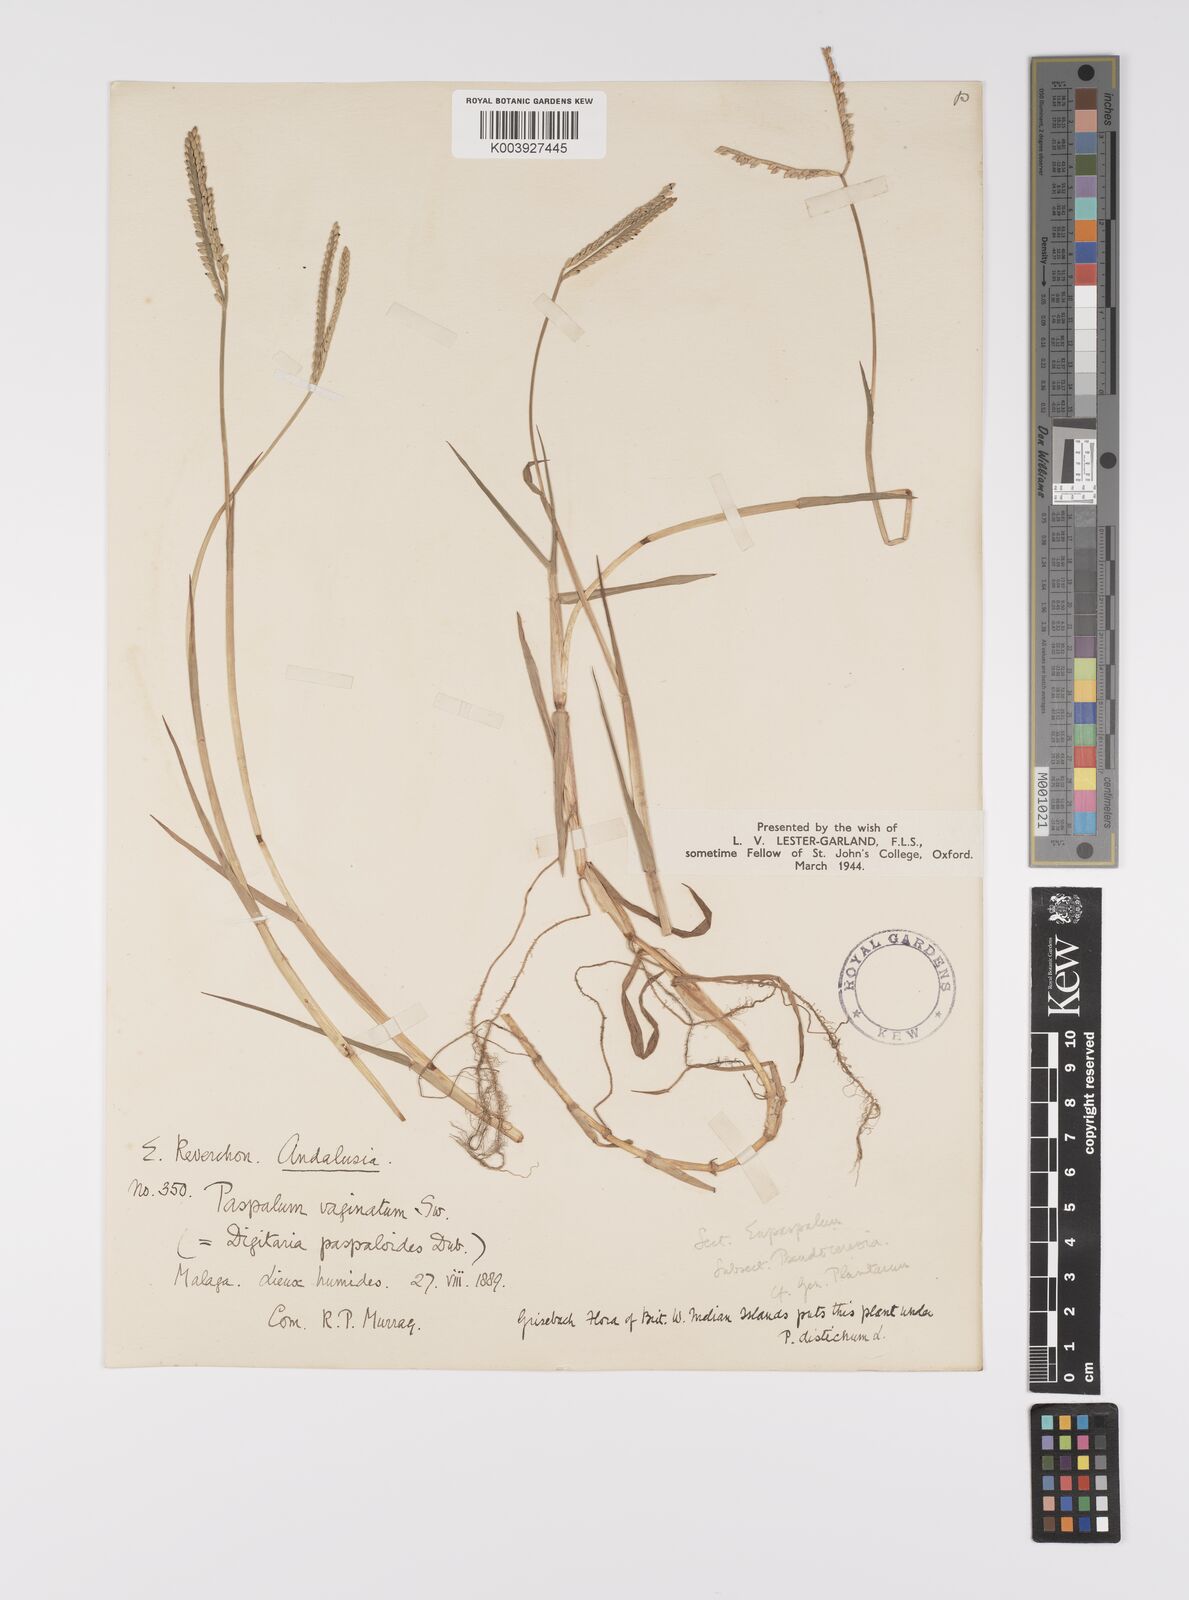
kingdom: Plantae
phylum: Tracheophyta
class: Liliopsida
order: Poales
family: Poaceae
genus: Paspalum
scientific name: Paspalum distichum
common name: Knotgrass
